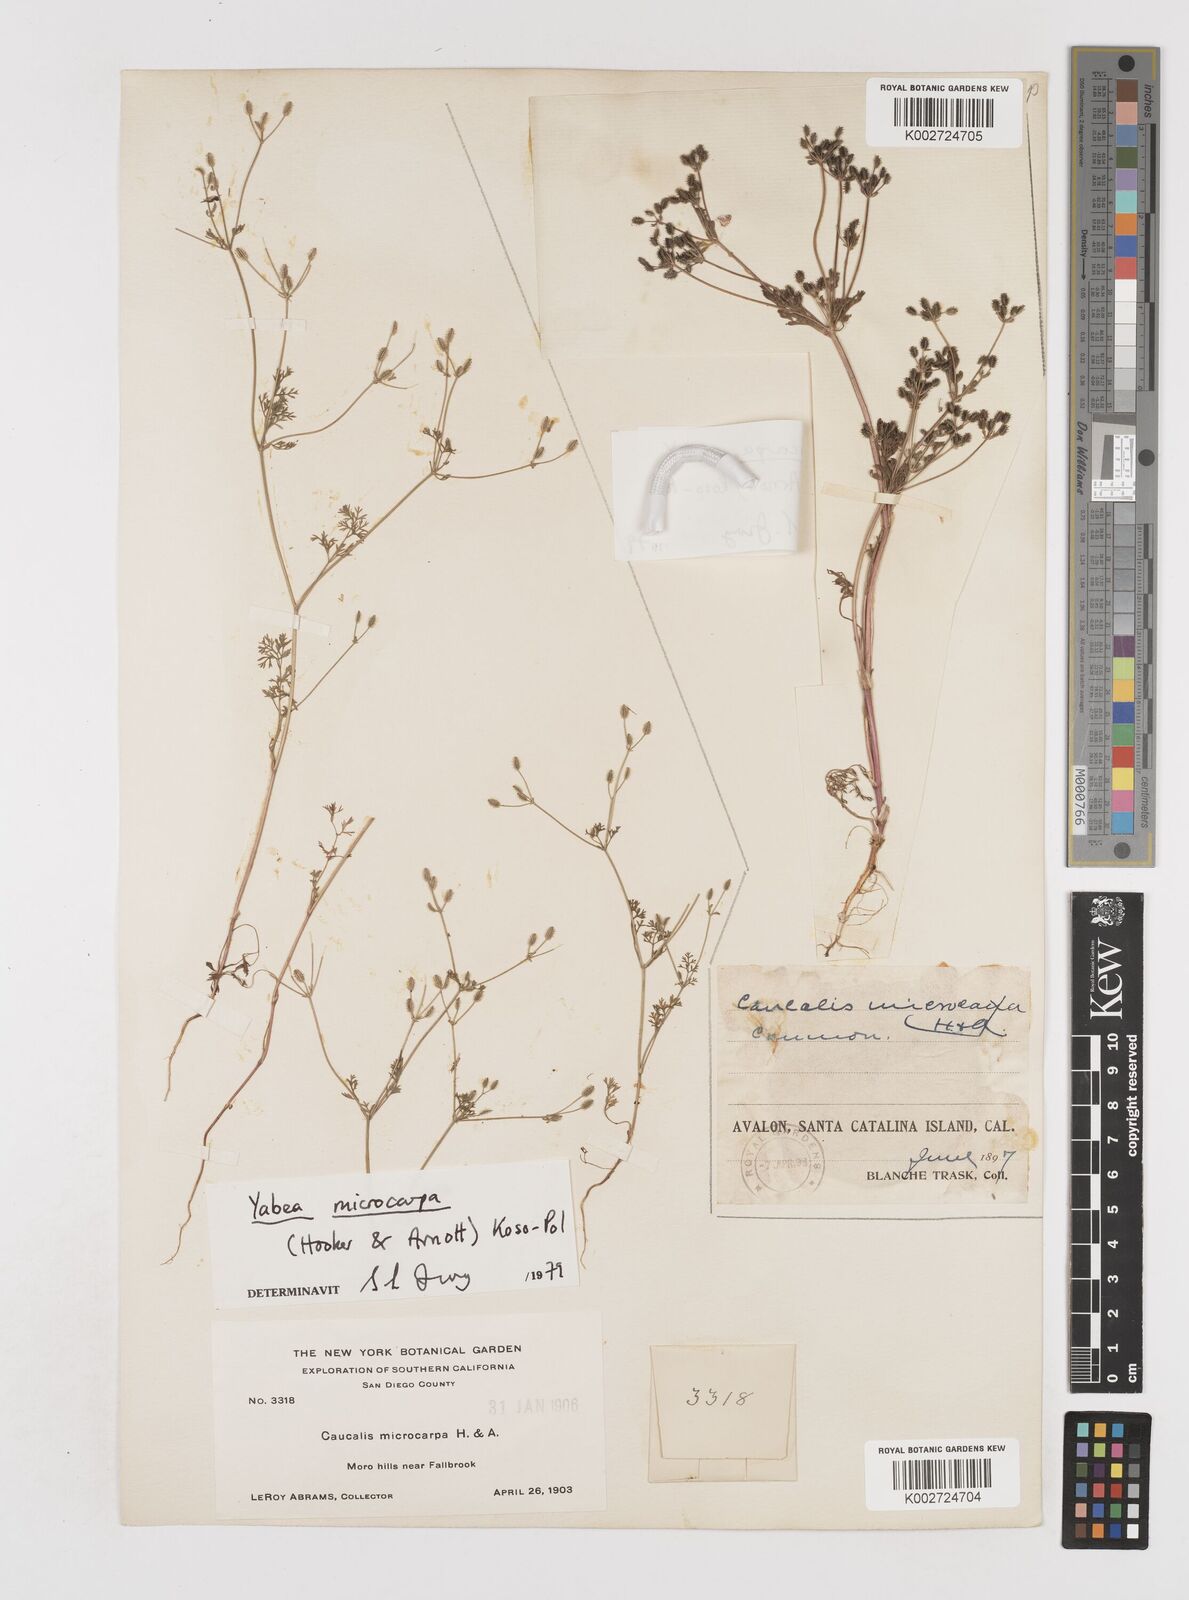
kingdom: Plantae
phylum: Tracheophyta
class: Magnoliopsida
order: Apiales
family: Apiaceae
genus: Yabea
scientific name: Yabea microcarpa
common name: False carrot
